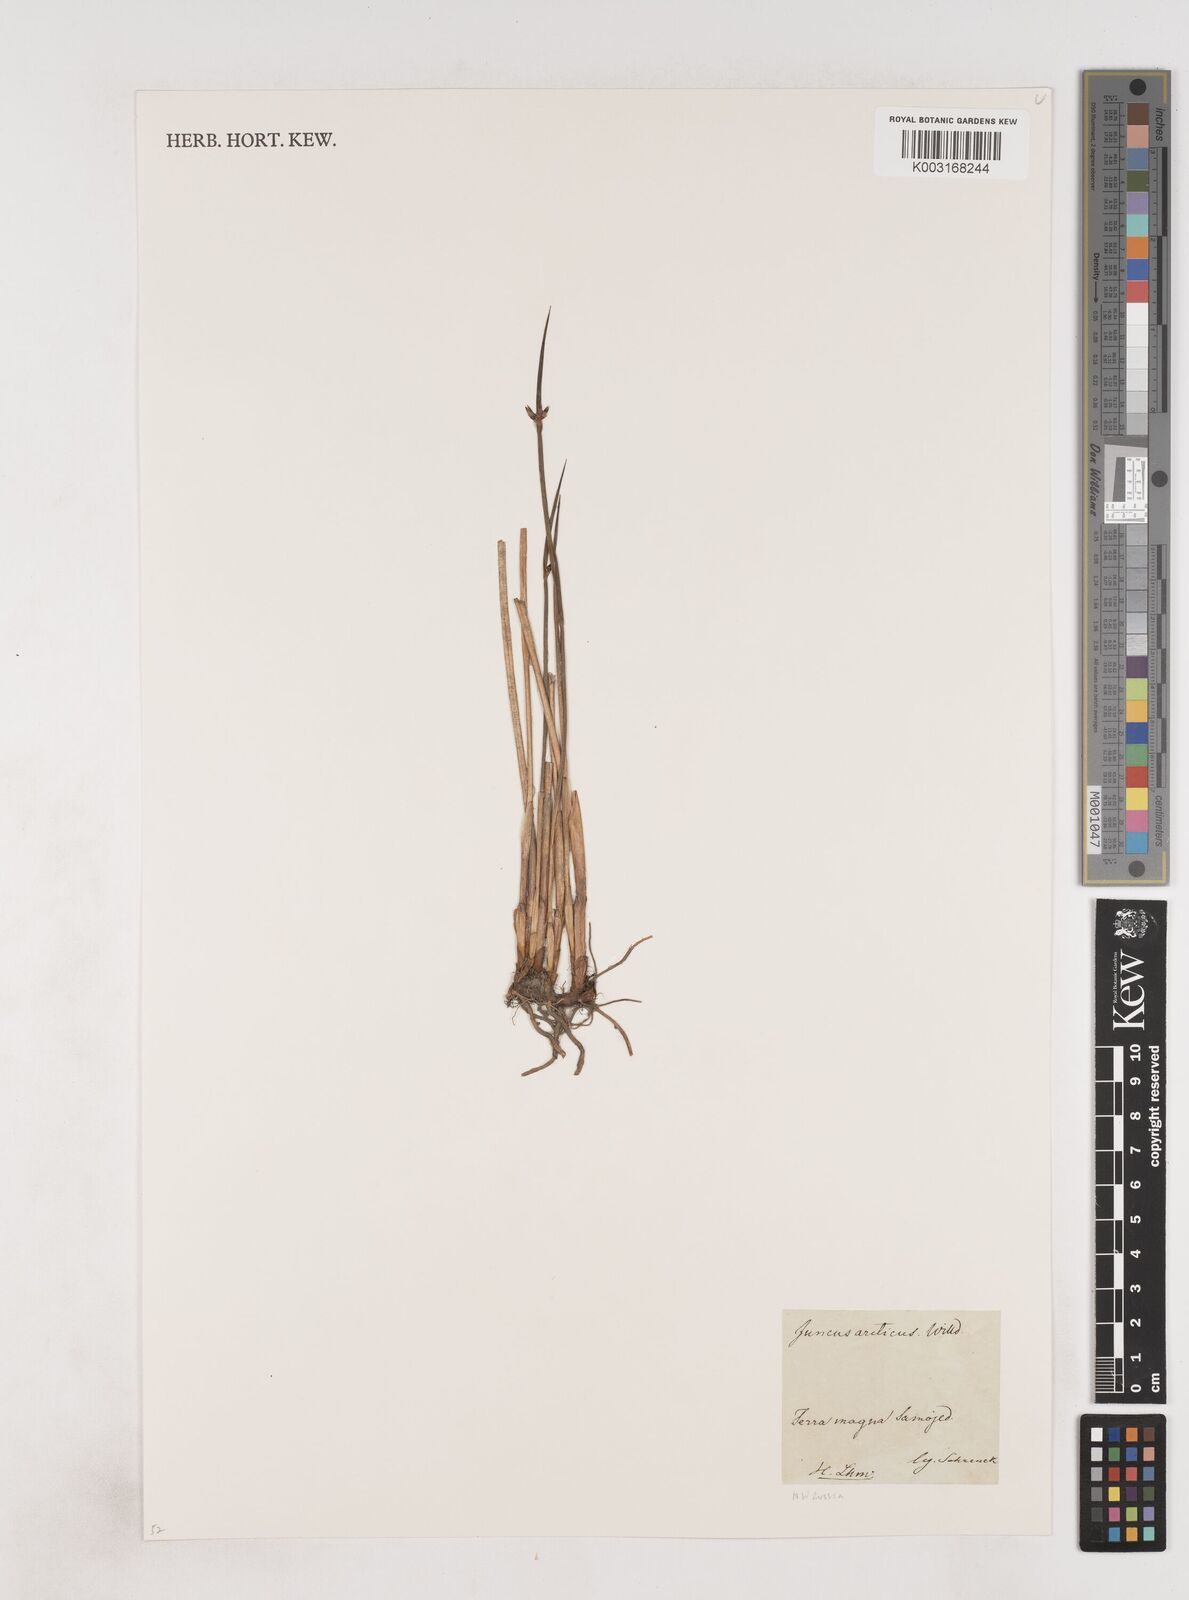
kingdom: Plantae
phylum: Tracheophyta
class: Liliopsida
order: Poales
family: Juncaceae
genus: Juncus
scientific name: Juncus arcticus
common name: Arctic rush
